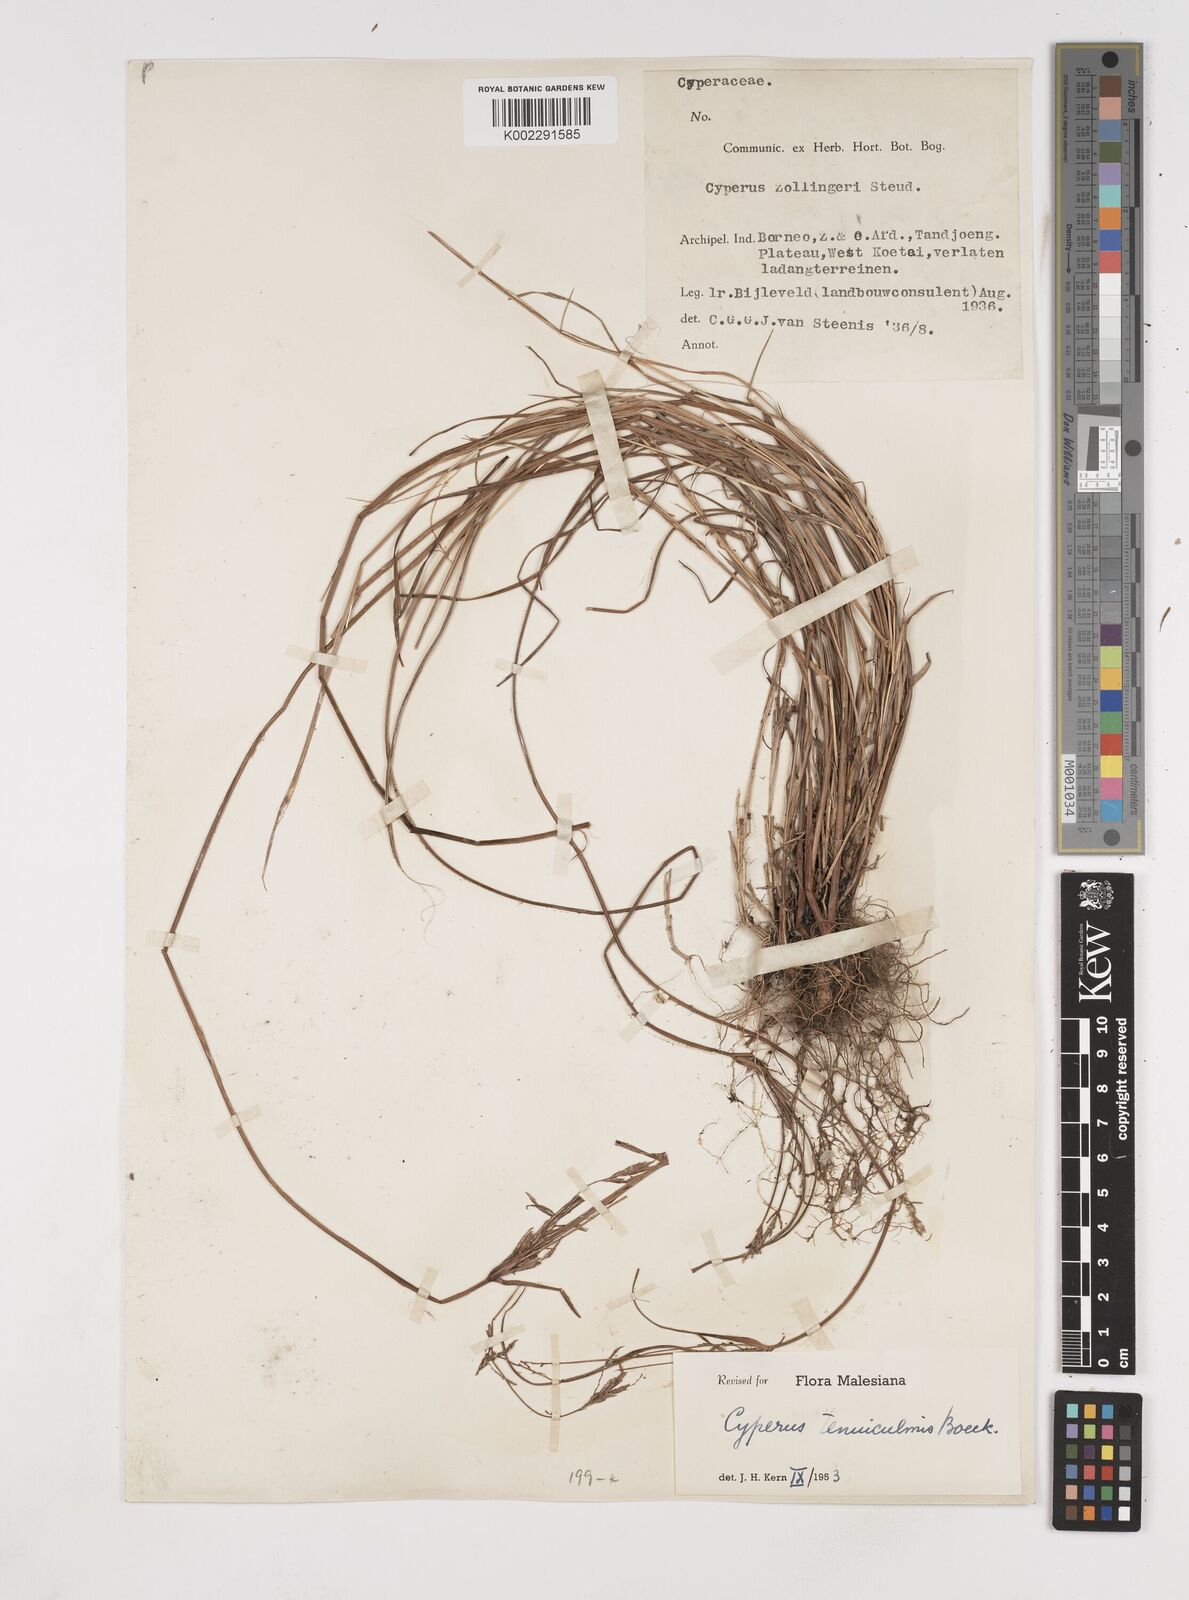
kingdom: Plantae
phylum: Tracheophyta
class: Liliopsida
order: Poales
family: Cyperaceae
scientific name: Cyperaceae
